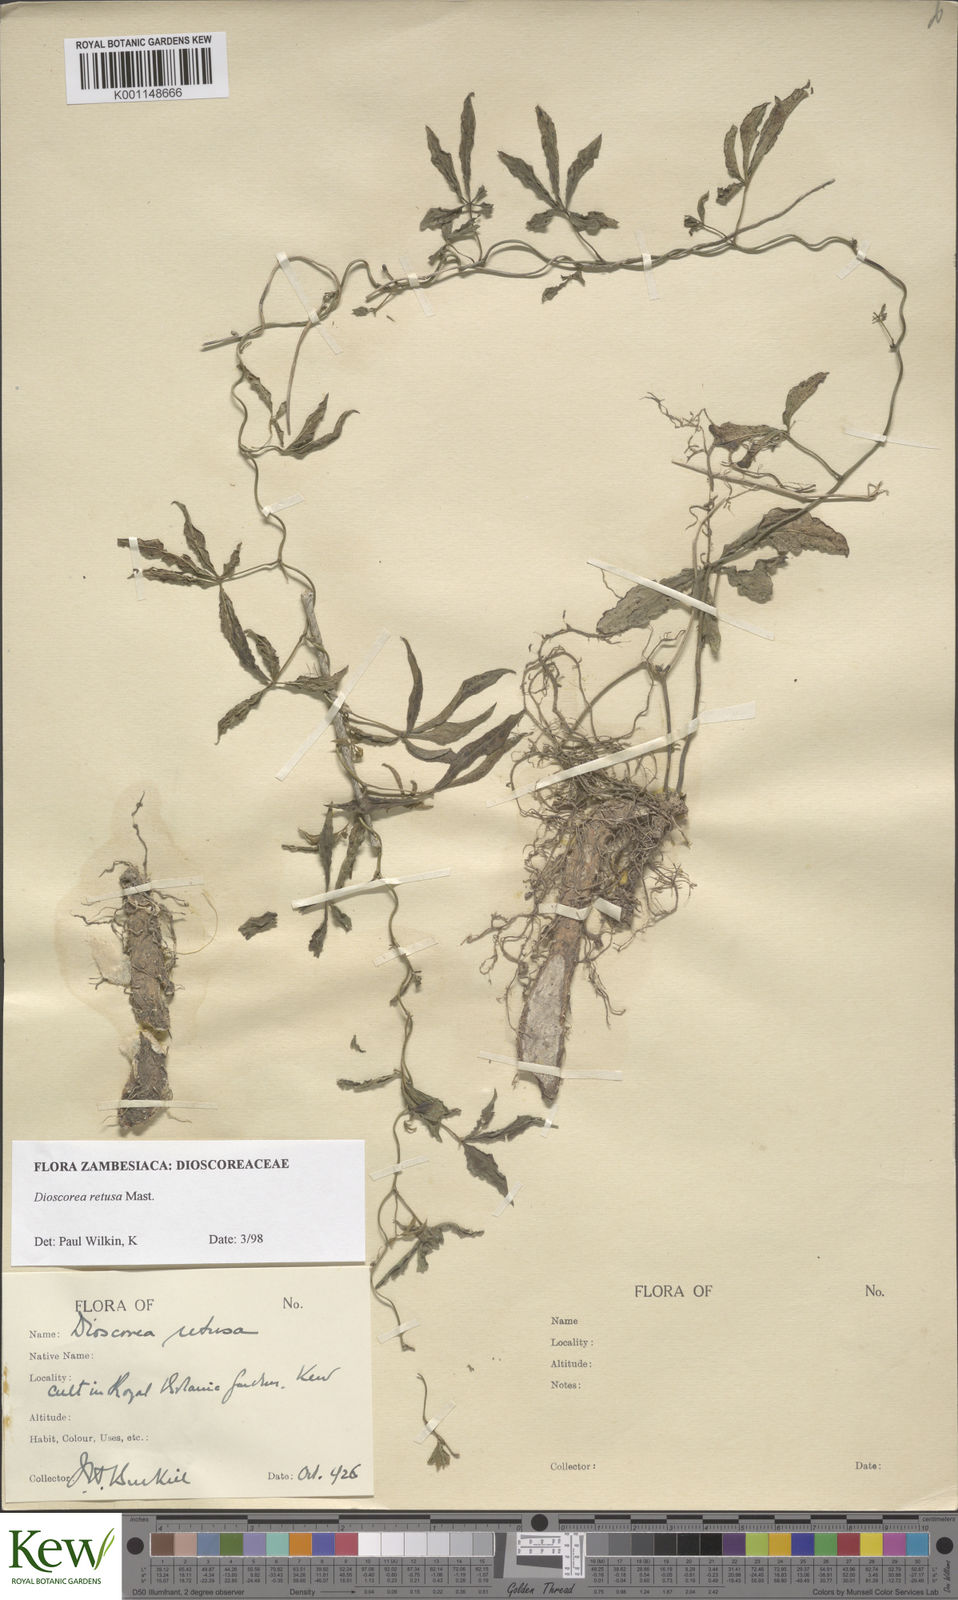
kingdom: Plantae
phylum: Tracheophyta
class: Liliopsida
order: Dioscoreales
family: Dioscoreaceae
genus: Dioscorea
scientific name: Dioscorea retusa
